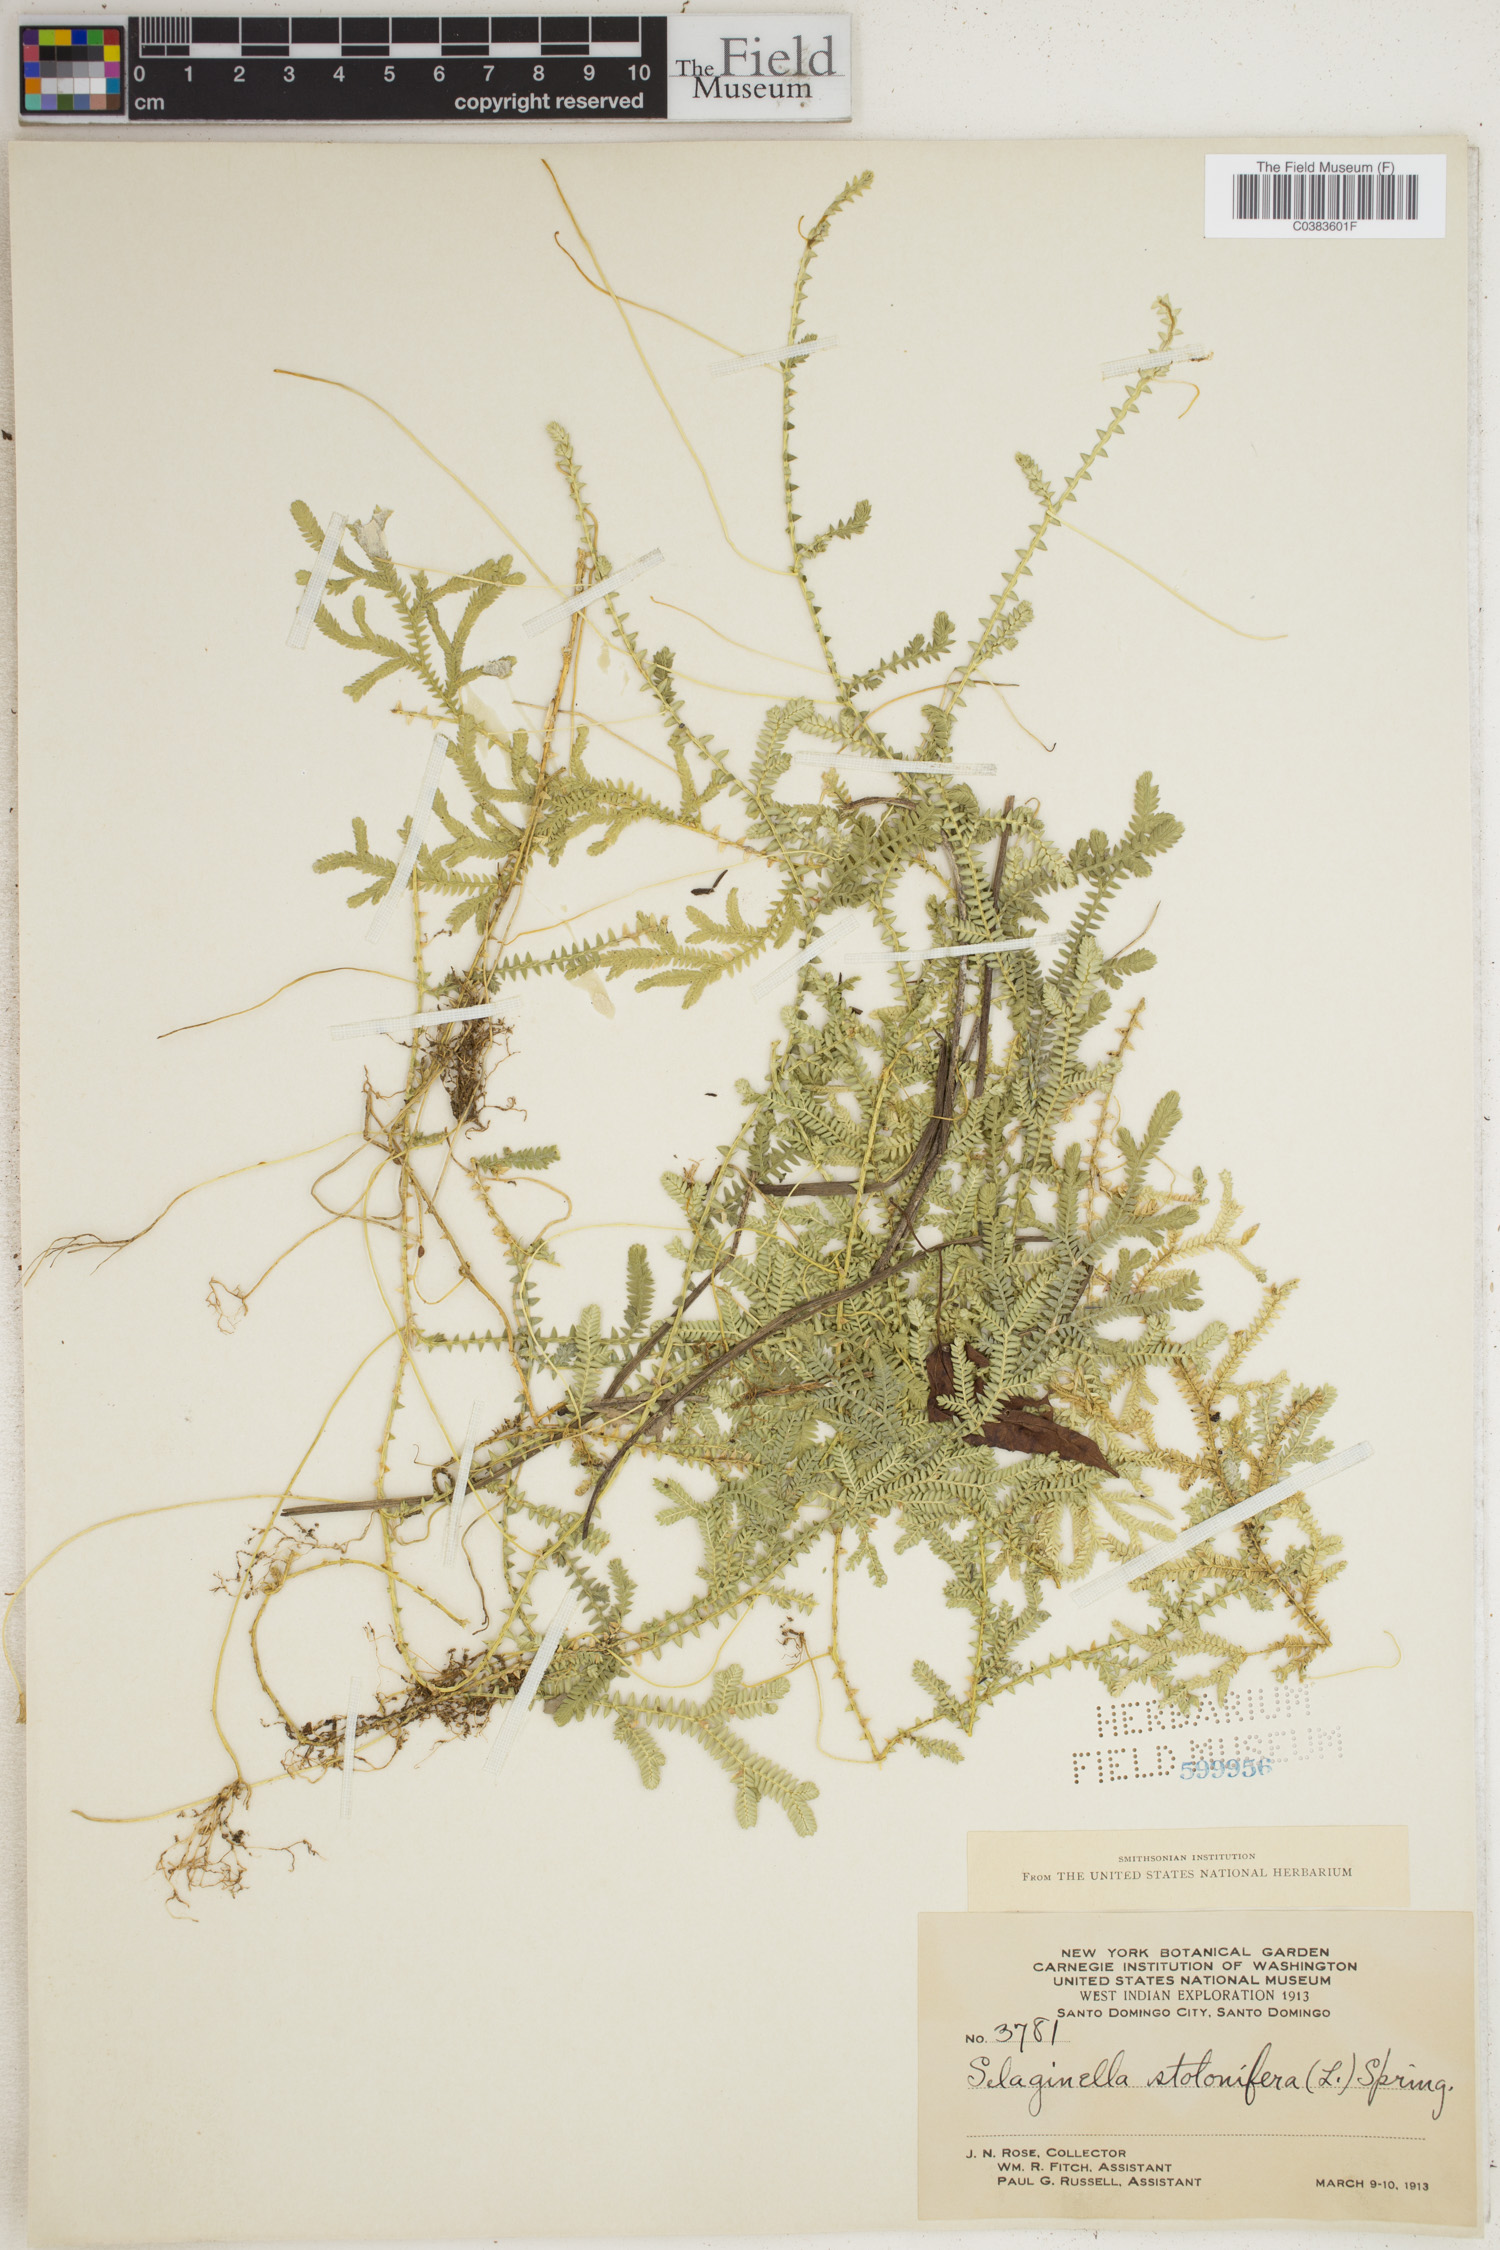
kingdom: Plantae
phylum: Tracheophyta
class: Lycopodiopsida
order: Selaginellales
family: Selaginellaceae
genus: Selaginella
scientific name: Selaginella plumosa
